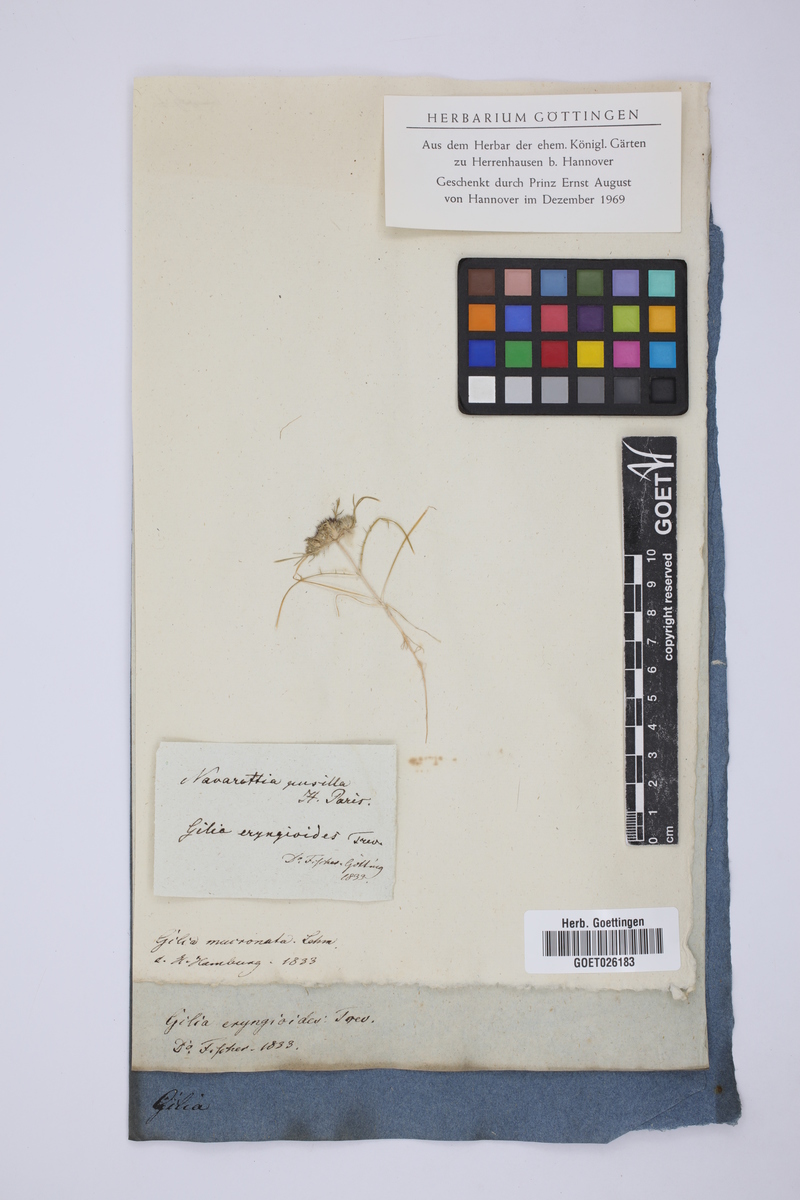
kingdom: Plantae
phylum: Tracheophyta
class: Magnoliopsida
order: Ericales
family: Polemoniaceae
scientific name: Polemoniaceae
